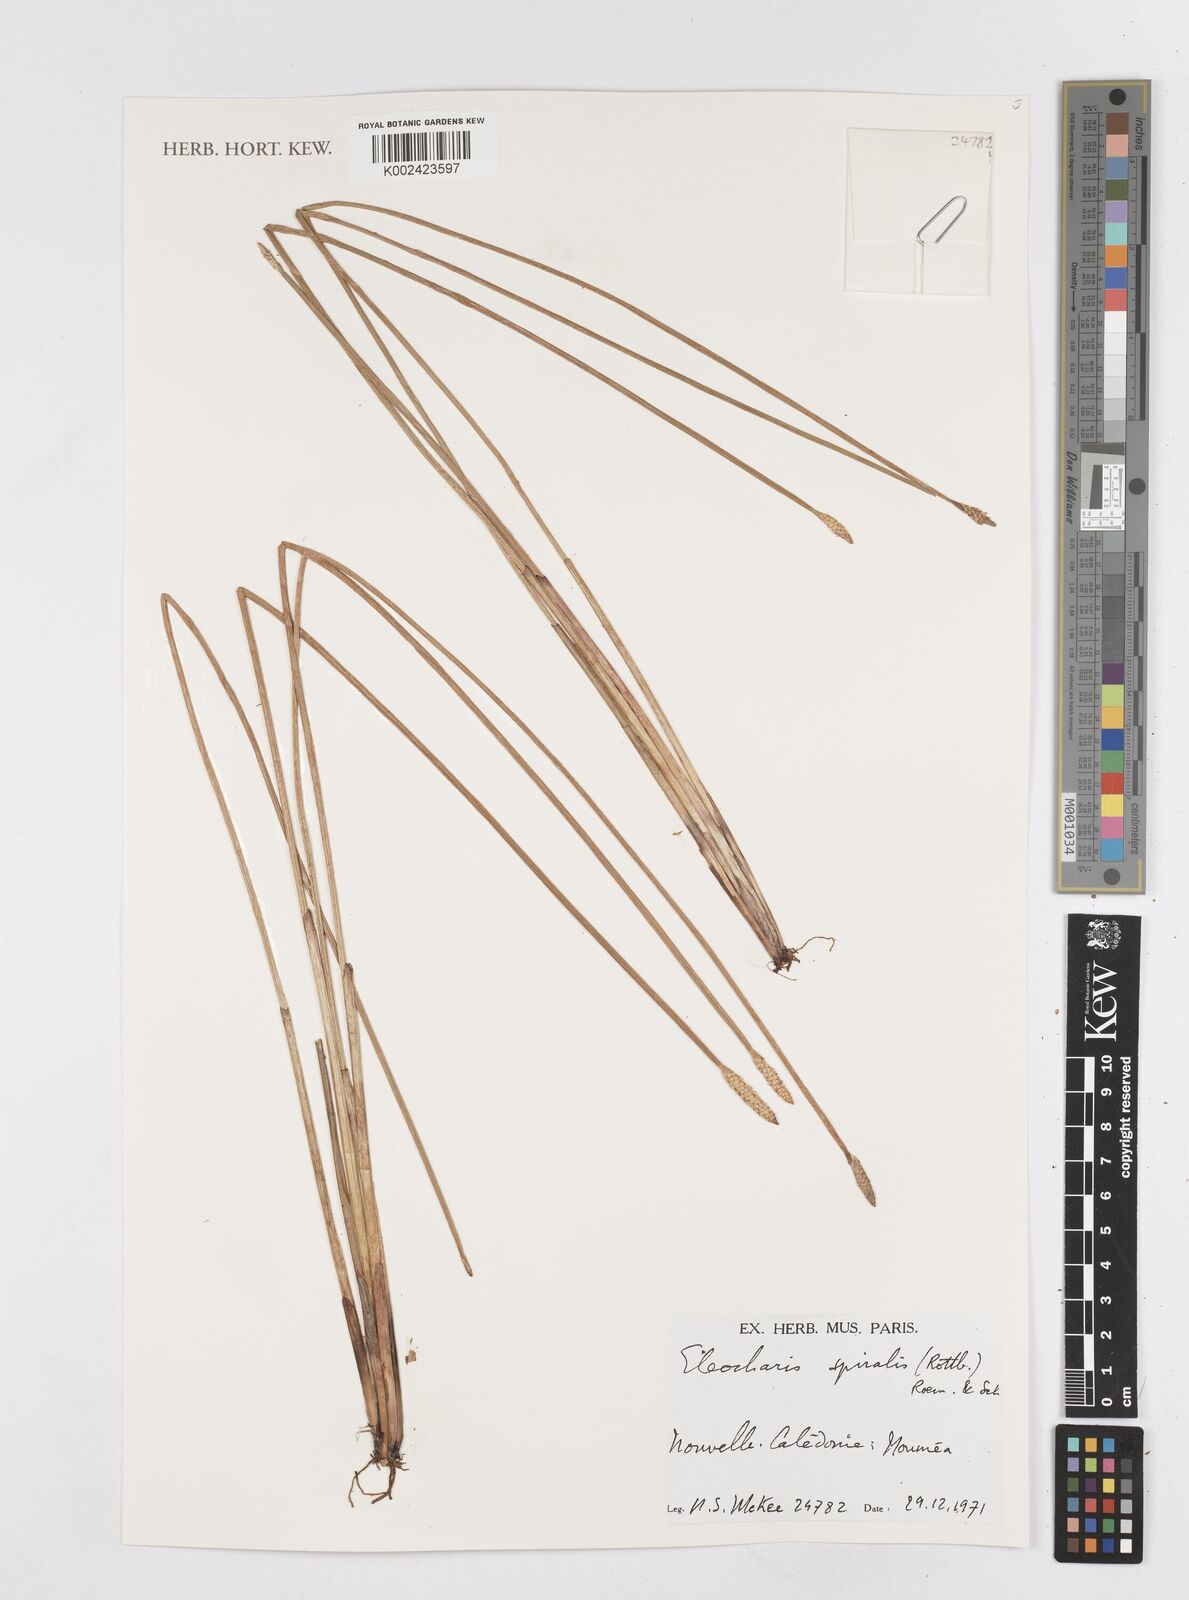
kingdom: Plantae
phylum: Tracheophyta
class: Liliopsida
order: Poales
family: Cyperaceae
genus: Eleocharis
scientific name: Eleocharis spiralis
